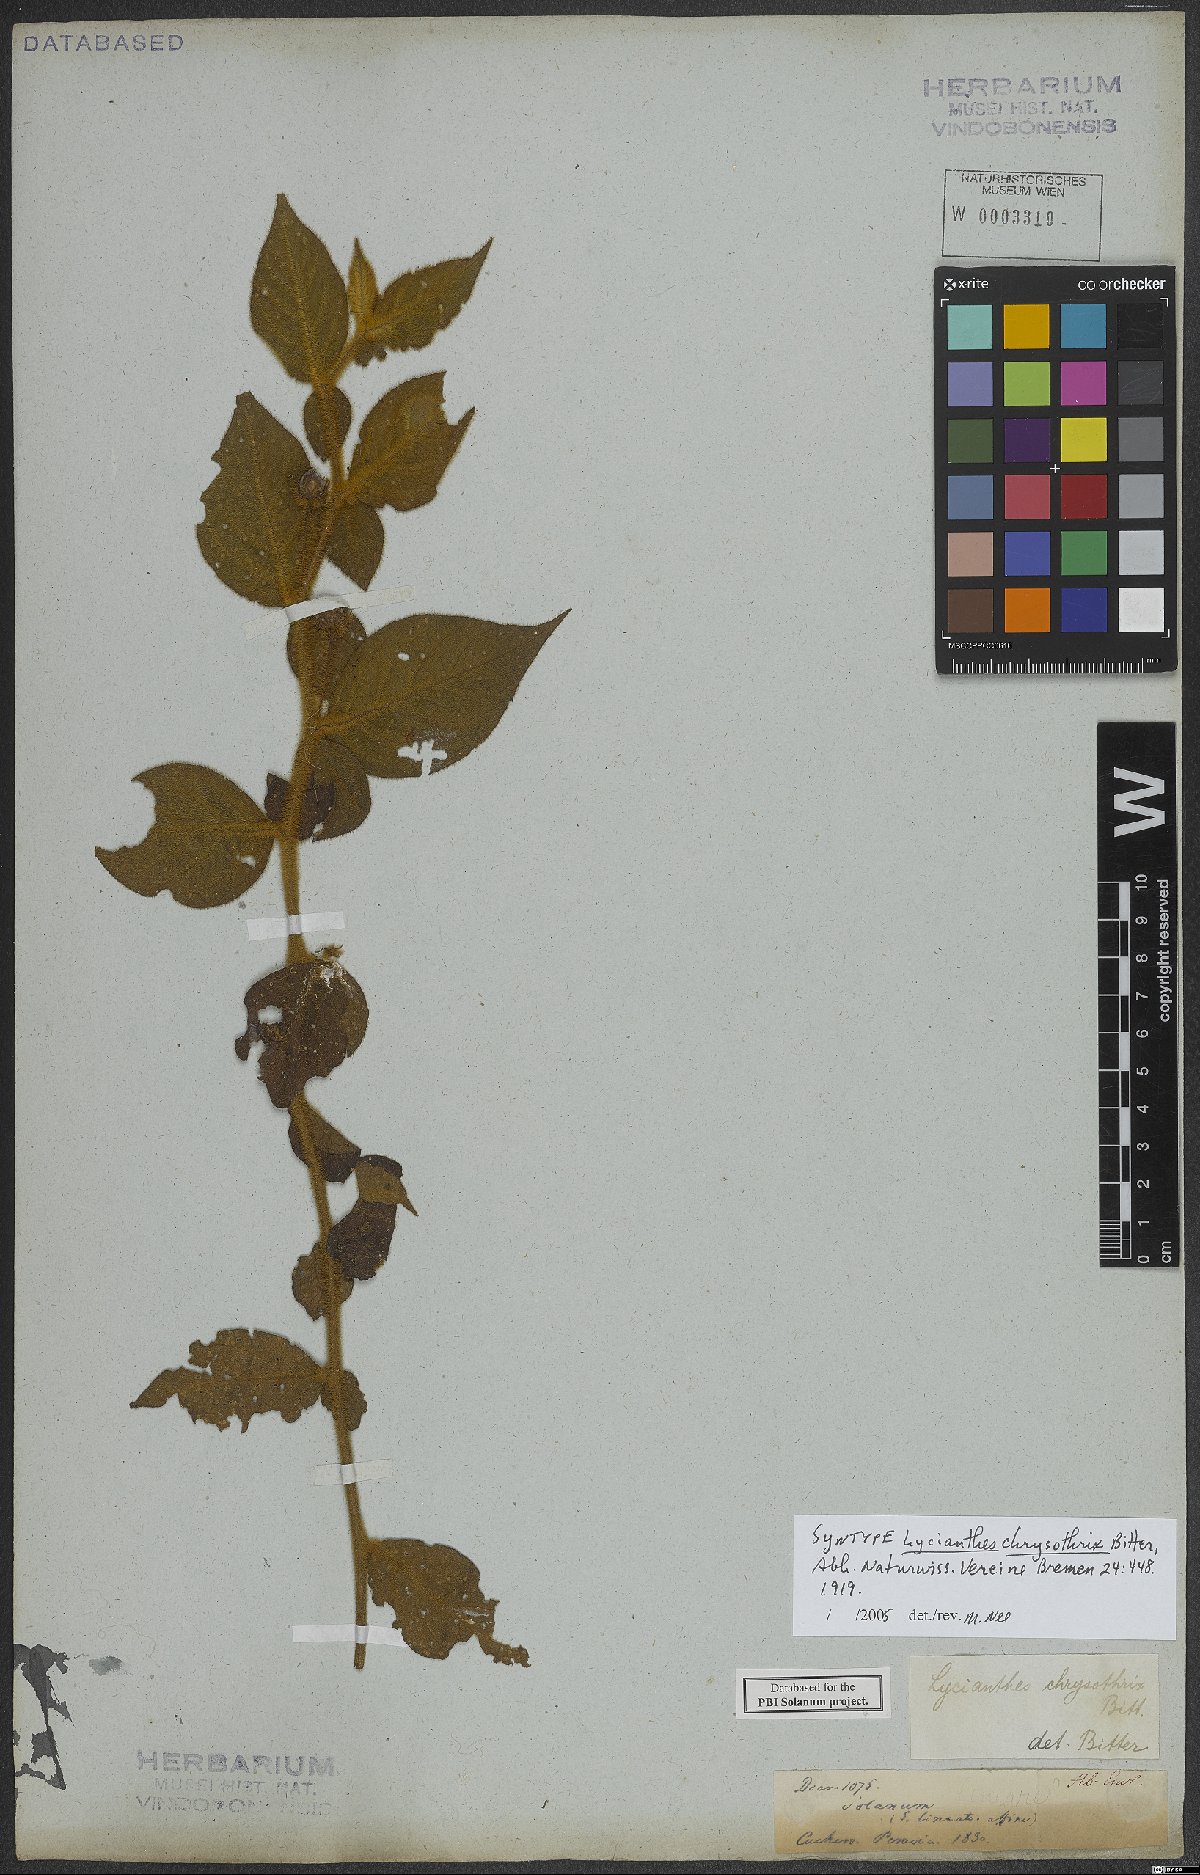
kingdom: Plantae
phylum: Tracheophyta
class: Magnoliopsida
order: Solanales
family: Solanaceae
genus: Lycianthes
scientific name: Lycianthes chrysothrix
